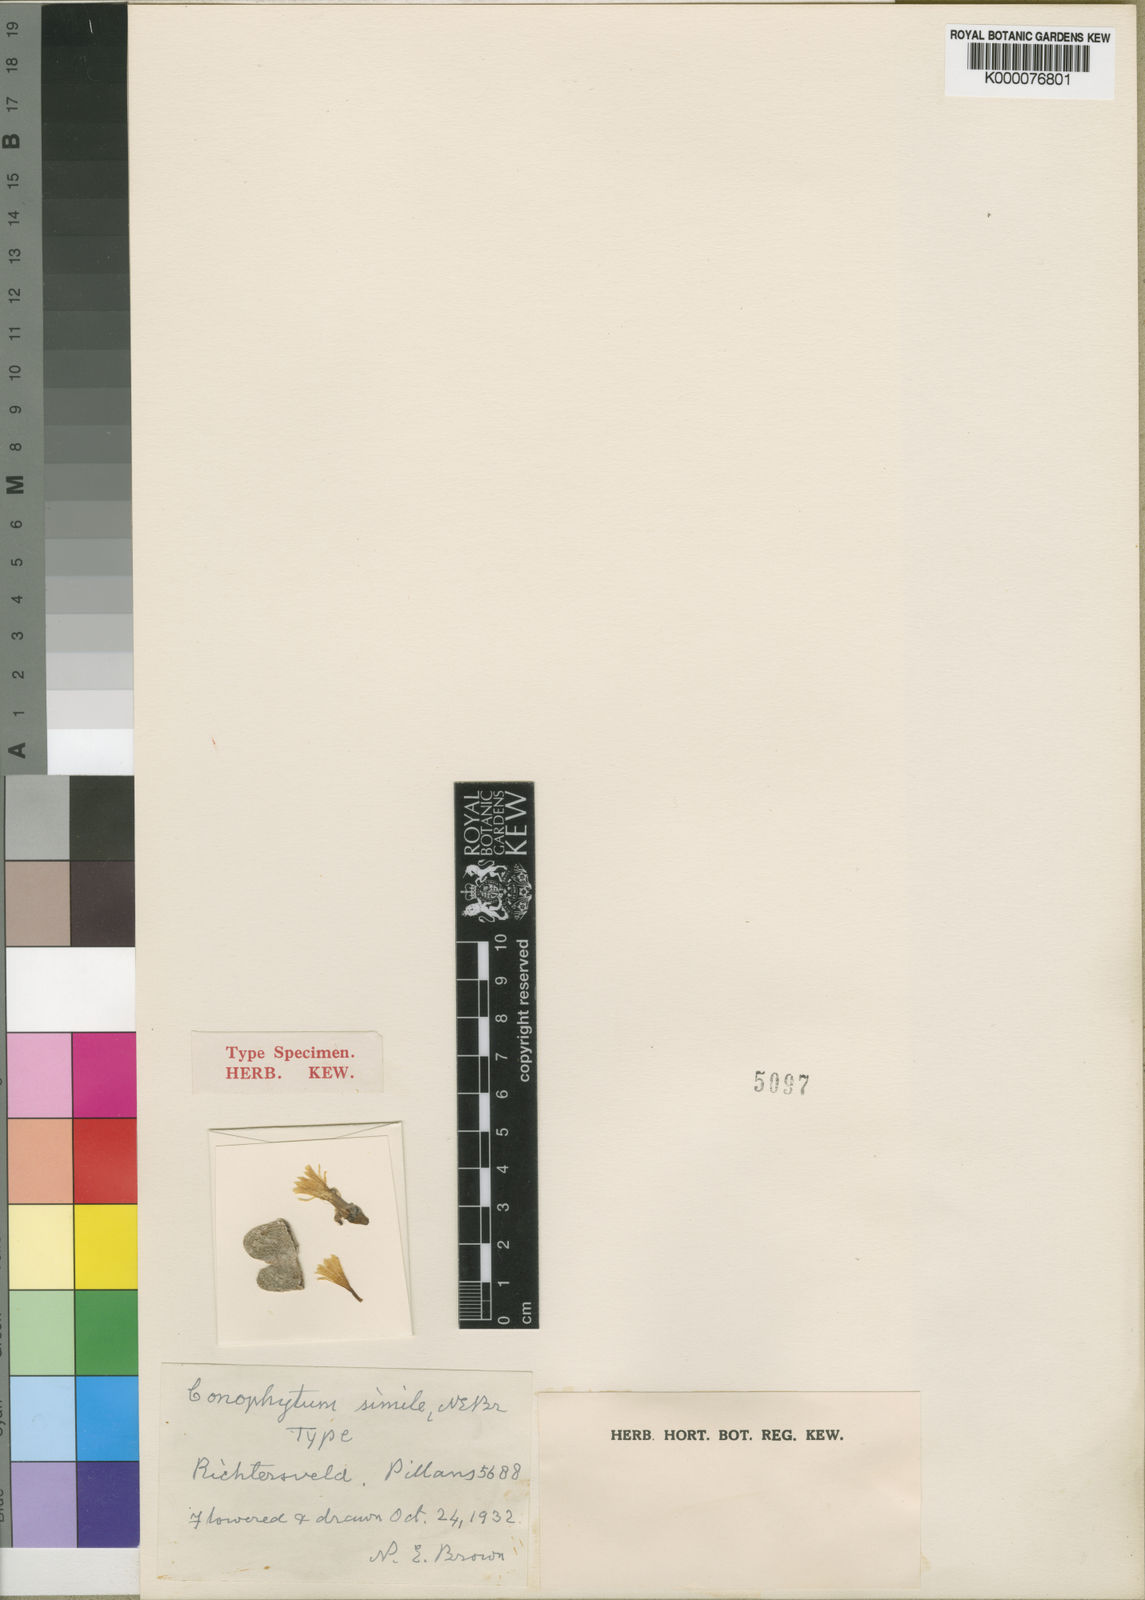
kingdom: Plantae
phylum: Tracheophyta
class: Magnoliopsida
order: Caryophyllales
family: Aizoaceae
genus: Conophytum
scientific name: Conophytum bilobum
